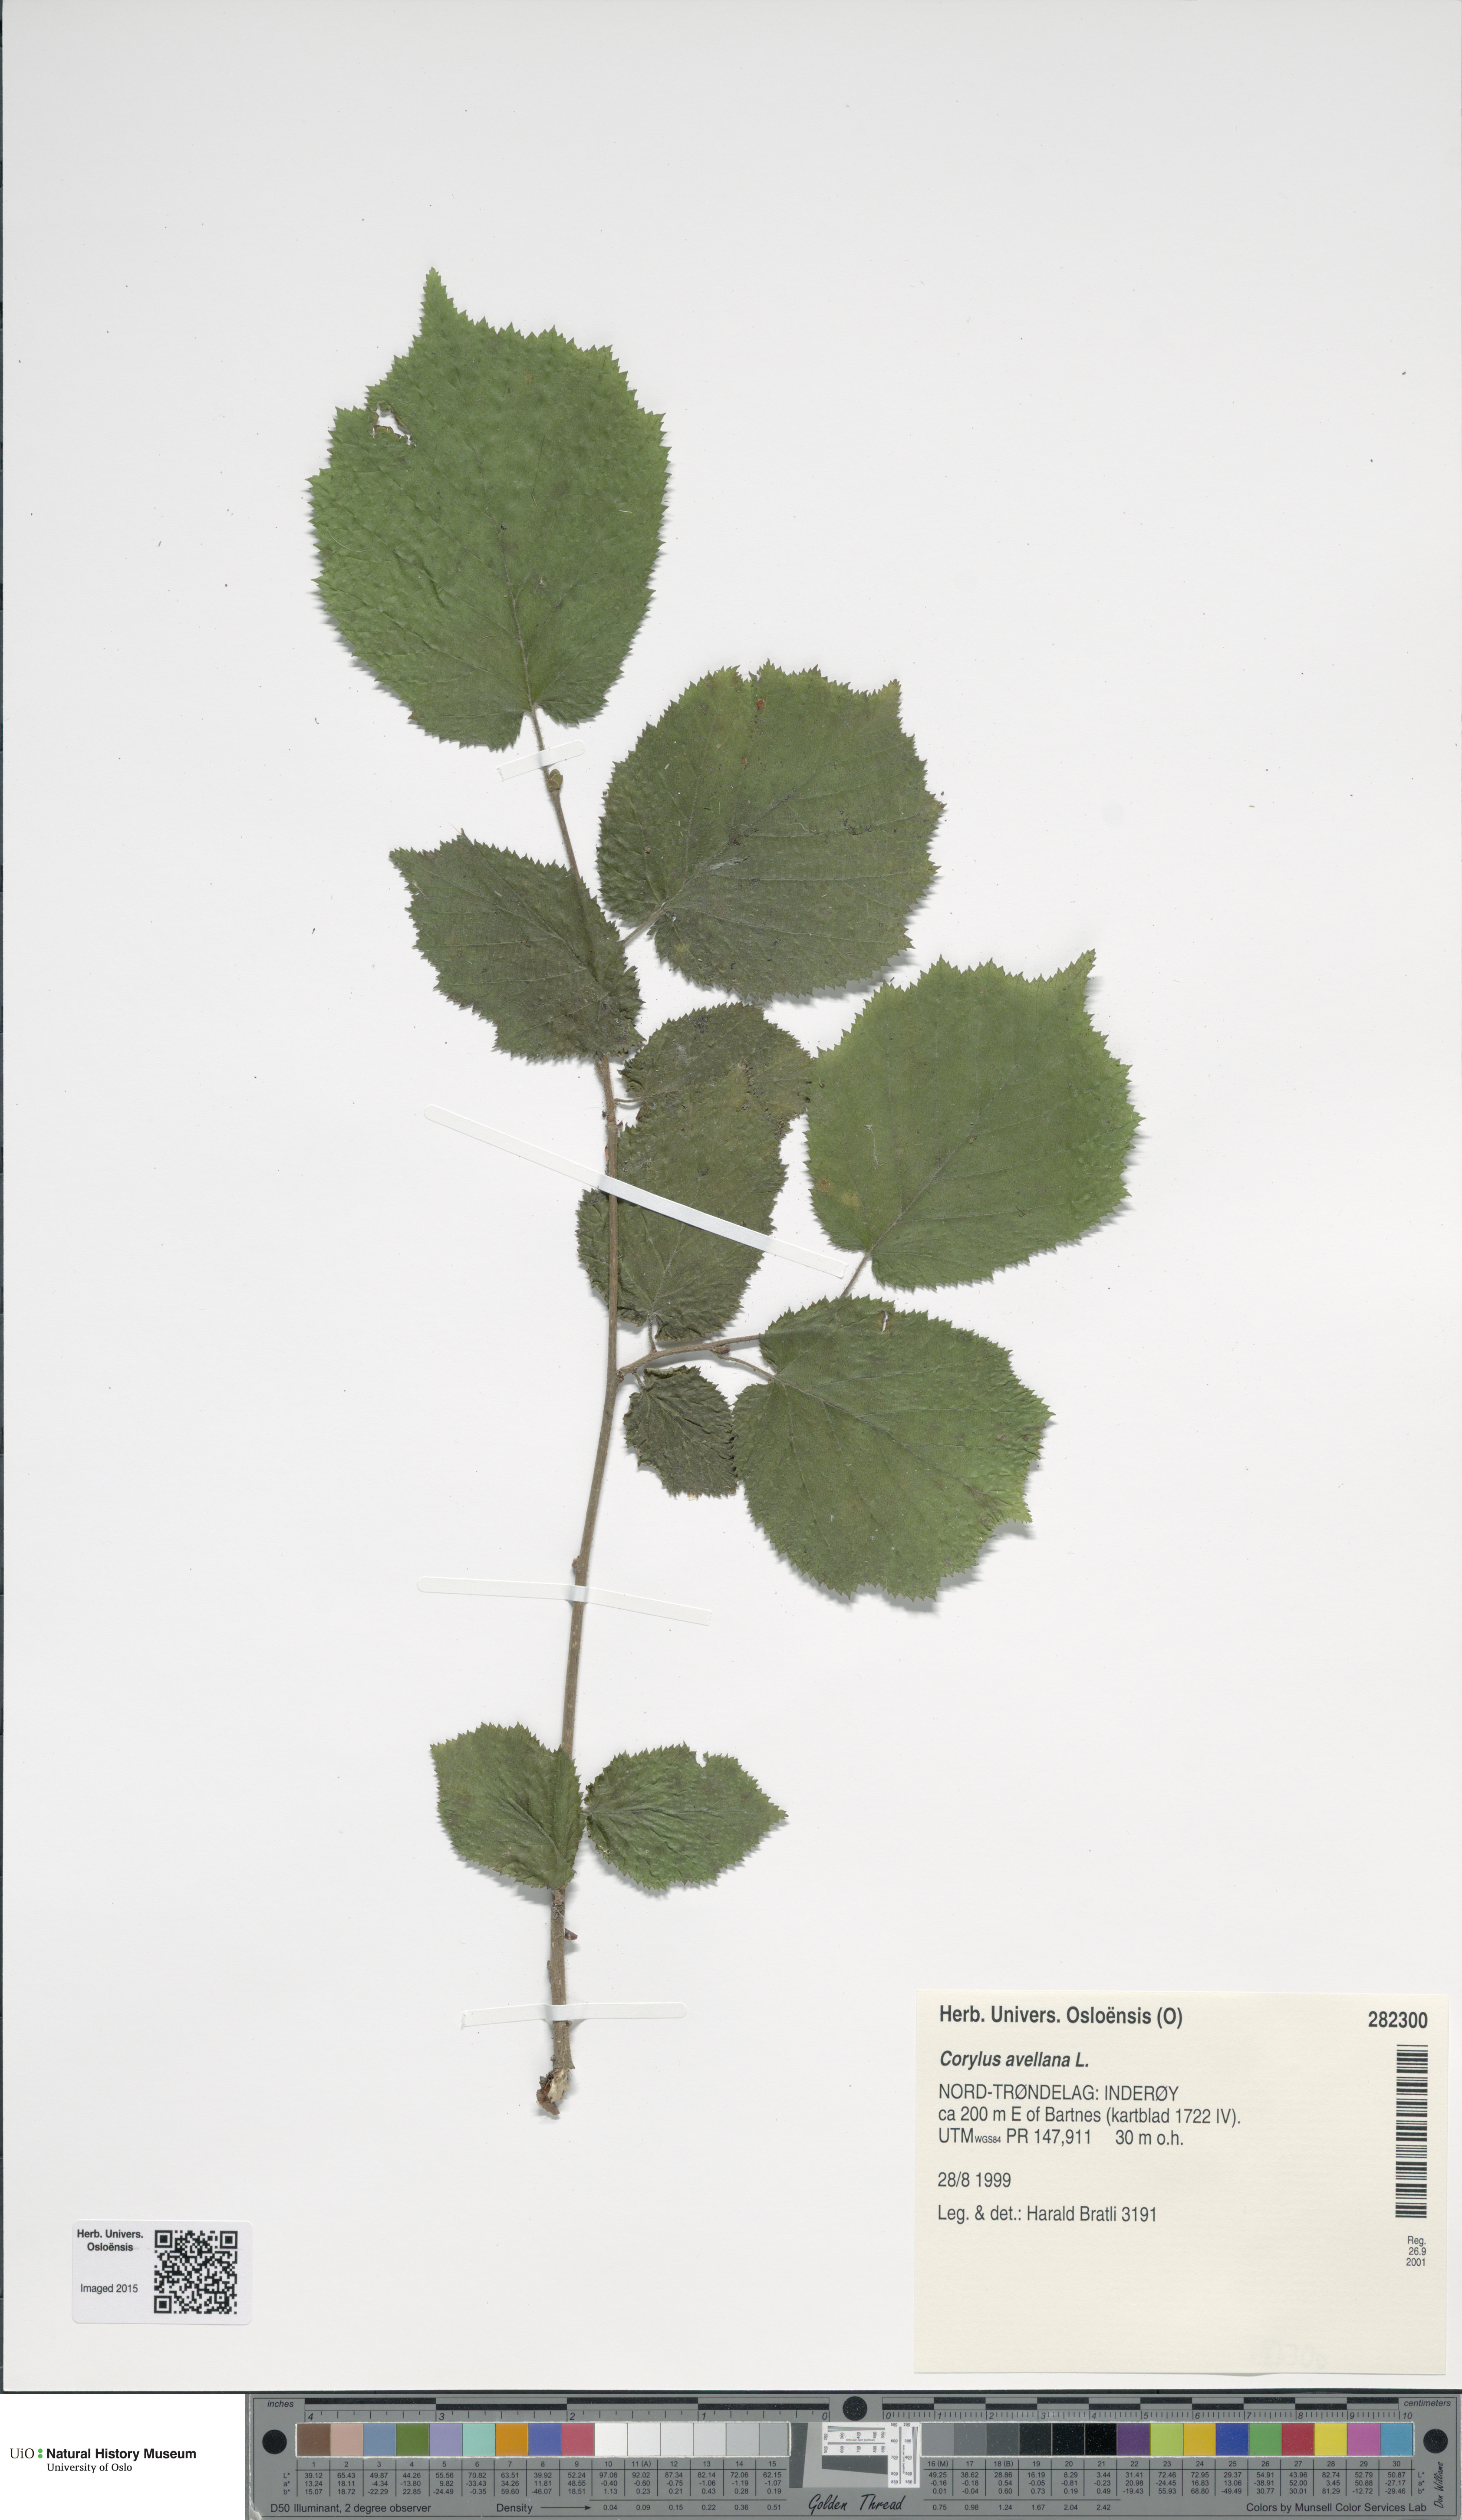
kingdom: Plantae
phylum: Tracheophyta
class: Magnoliopsida
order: Fagales
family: Betulaceae
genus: Corylus
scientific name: Corylus avellana
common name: European hazel
